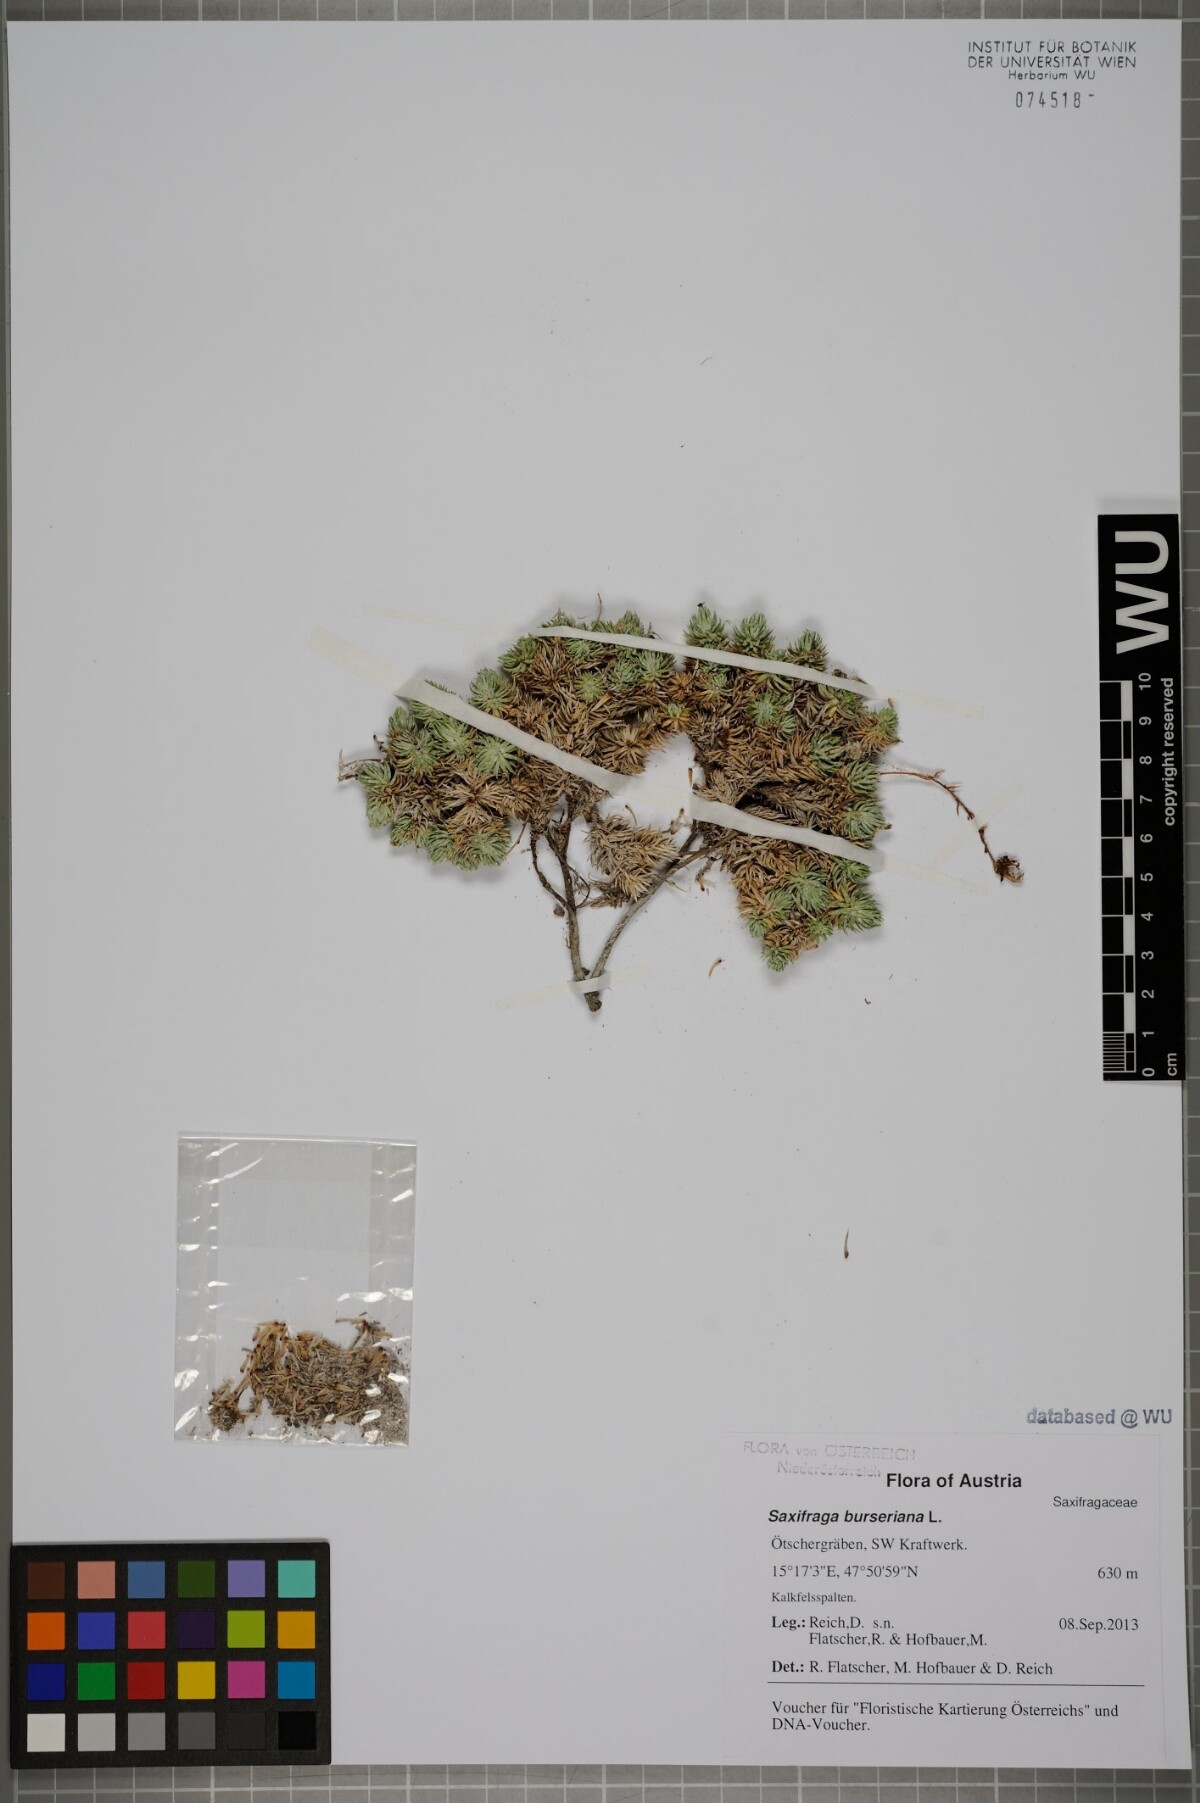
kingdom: Plantae
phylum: Tracheophyta
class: Magnoliopsida
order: Saxifragales
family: Saxifragaceae
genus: Saxifraga
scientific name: Saxifraga burseriana
